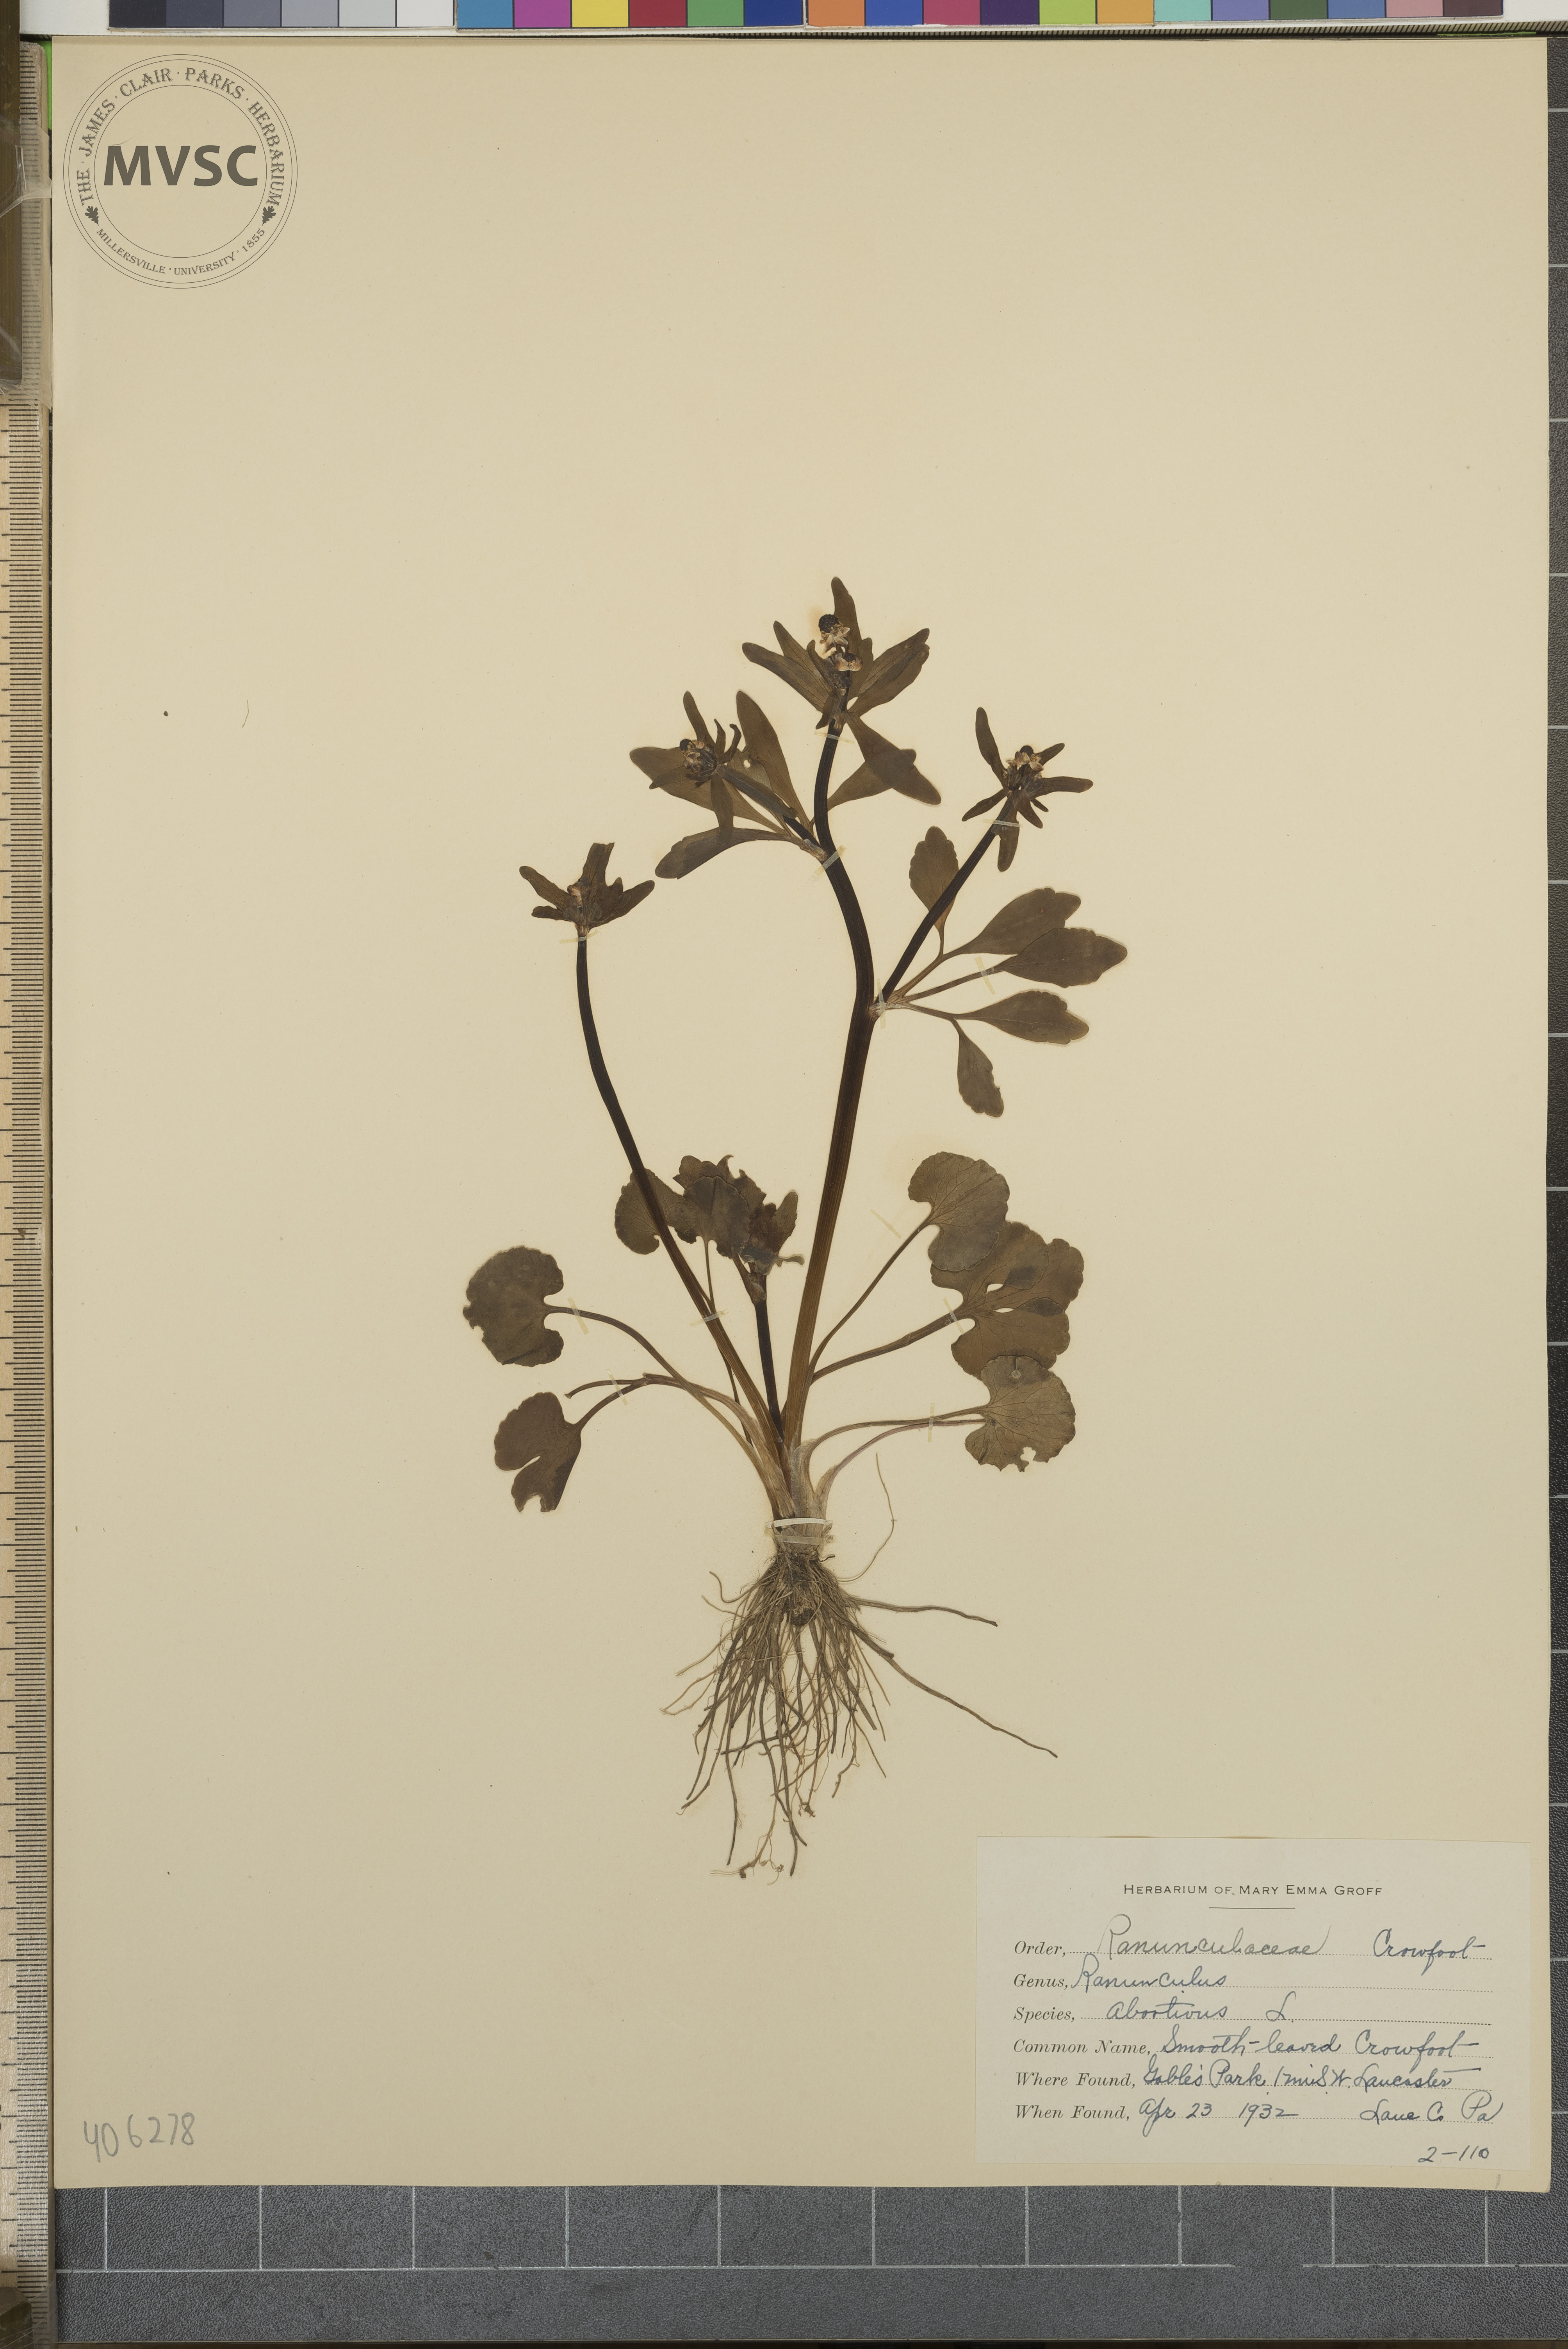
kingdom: Plantae
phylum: Tracheophyta
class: Magnoliopsida
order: Ranunculales
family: Ranunculaceae
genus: Ranunculus
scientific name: Ranunculus abortivus
